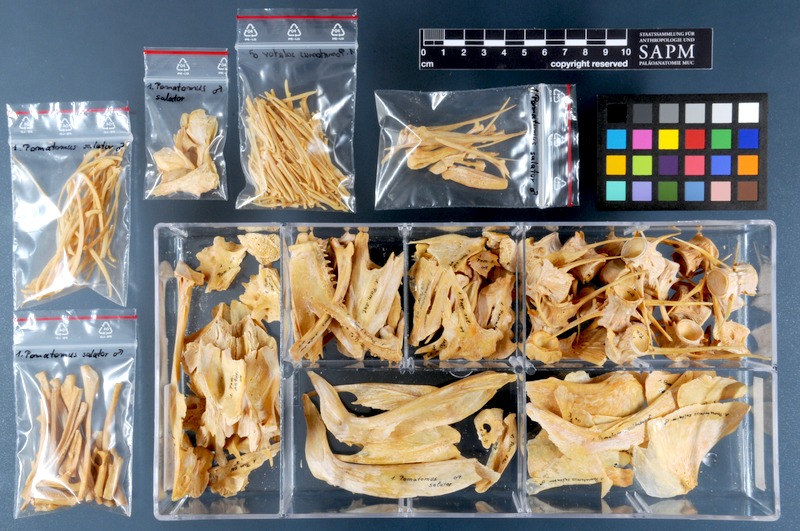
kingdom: Animalia
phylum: Chordata
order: Perciformes
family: Pomatomidae
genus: Pomatomus
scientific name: Pomatomus saltatrix
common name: Bluefish
